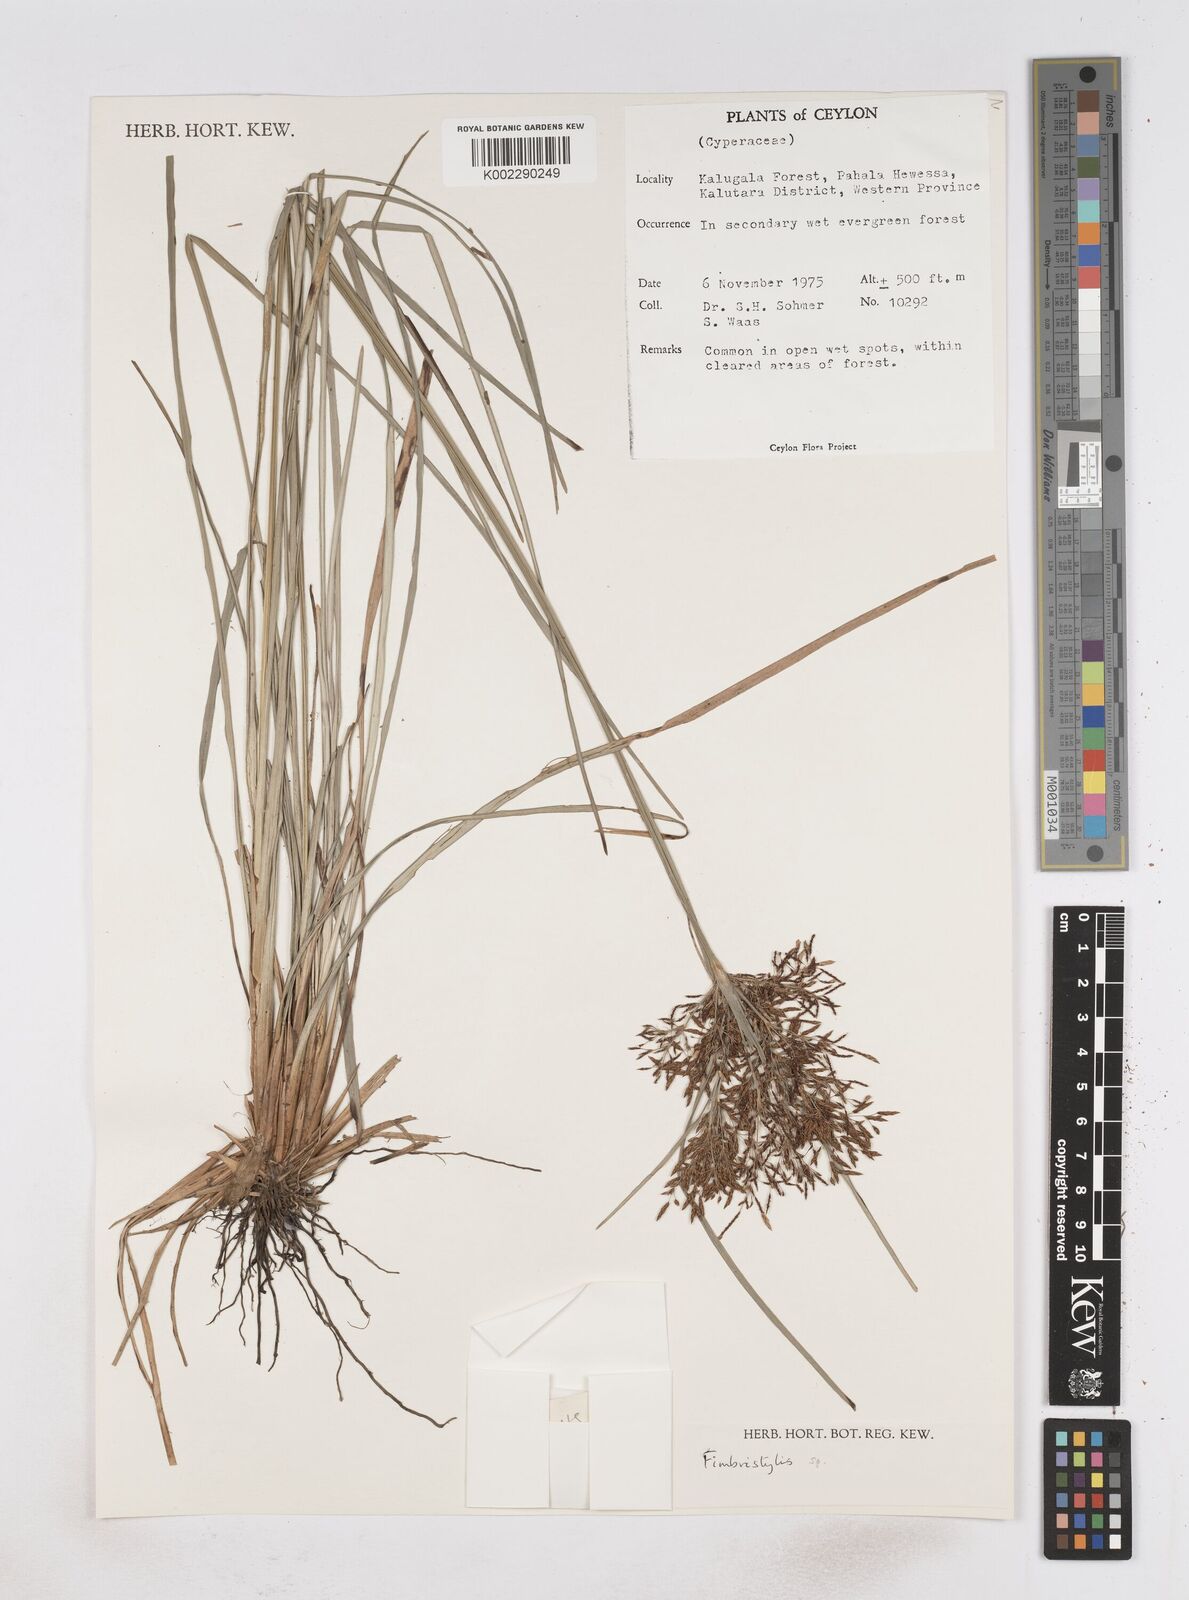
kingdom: Plantae
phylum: Tracheophyta
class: Liliopsida
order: Poales
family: Cyperaceae
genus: Fimbristylis
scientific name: Fimbristylis
